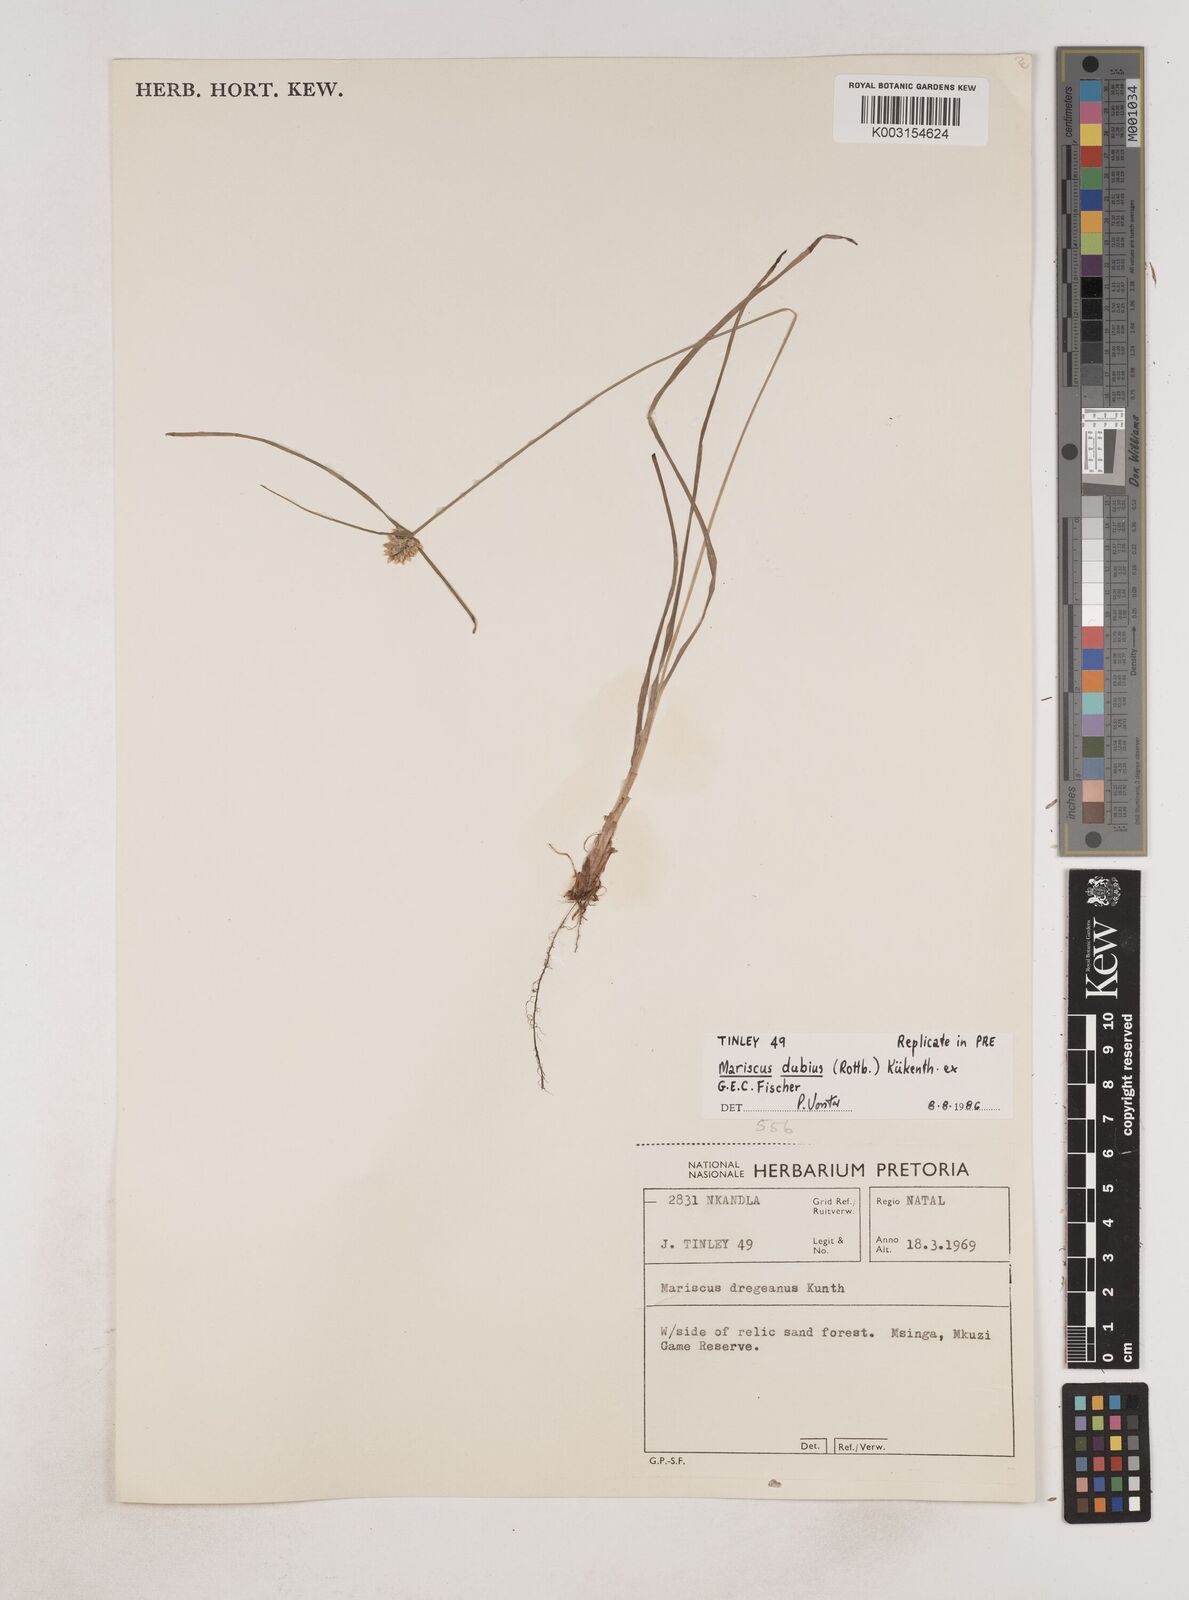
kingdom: Plantae
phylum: Tracheophyta
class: Liliopsida
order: Poales
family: Cyperaceae
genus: Cyperus
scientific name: Cyperus dubius
